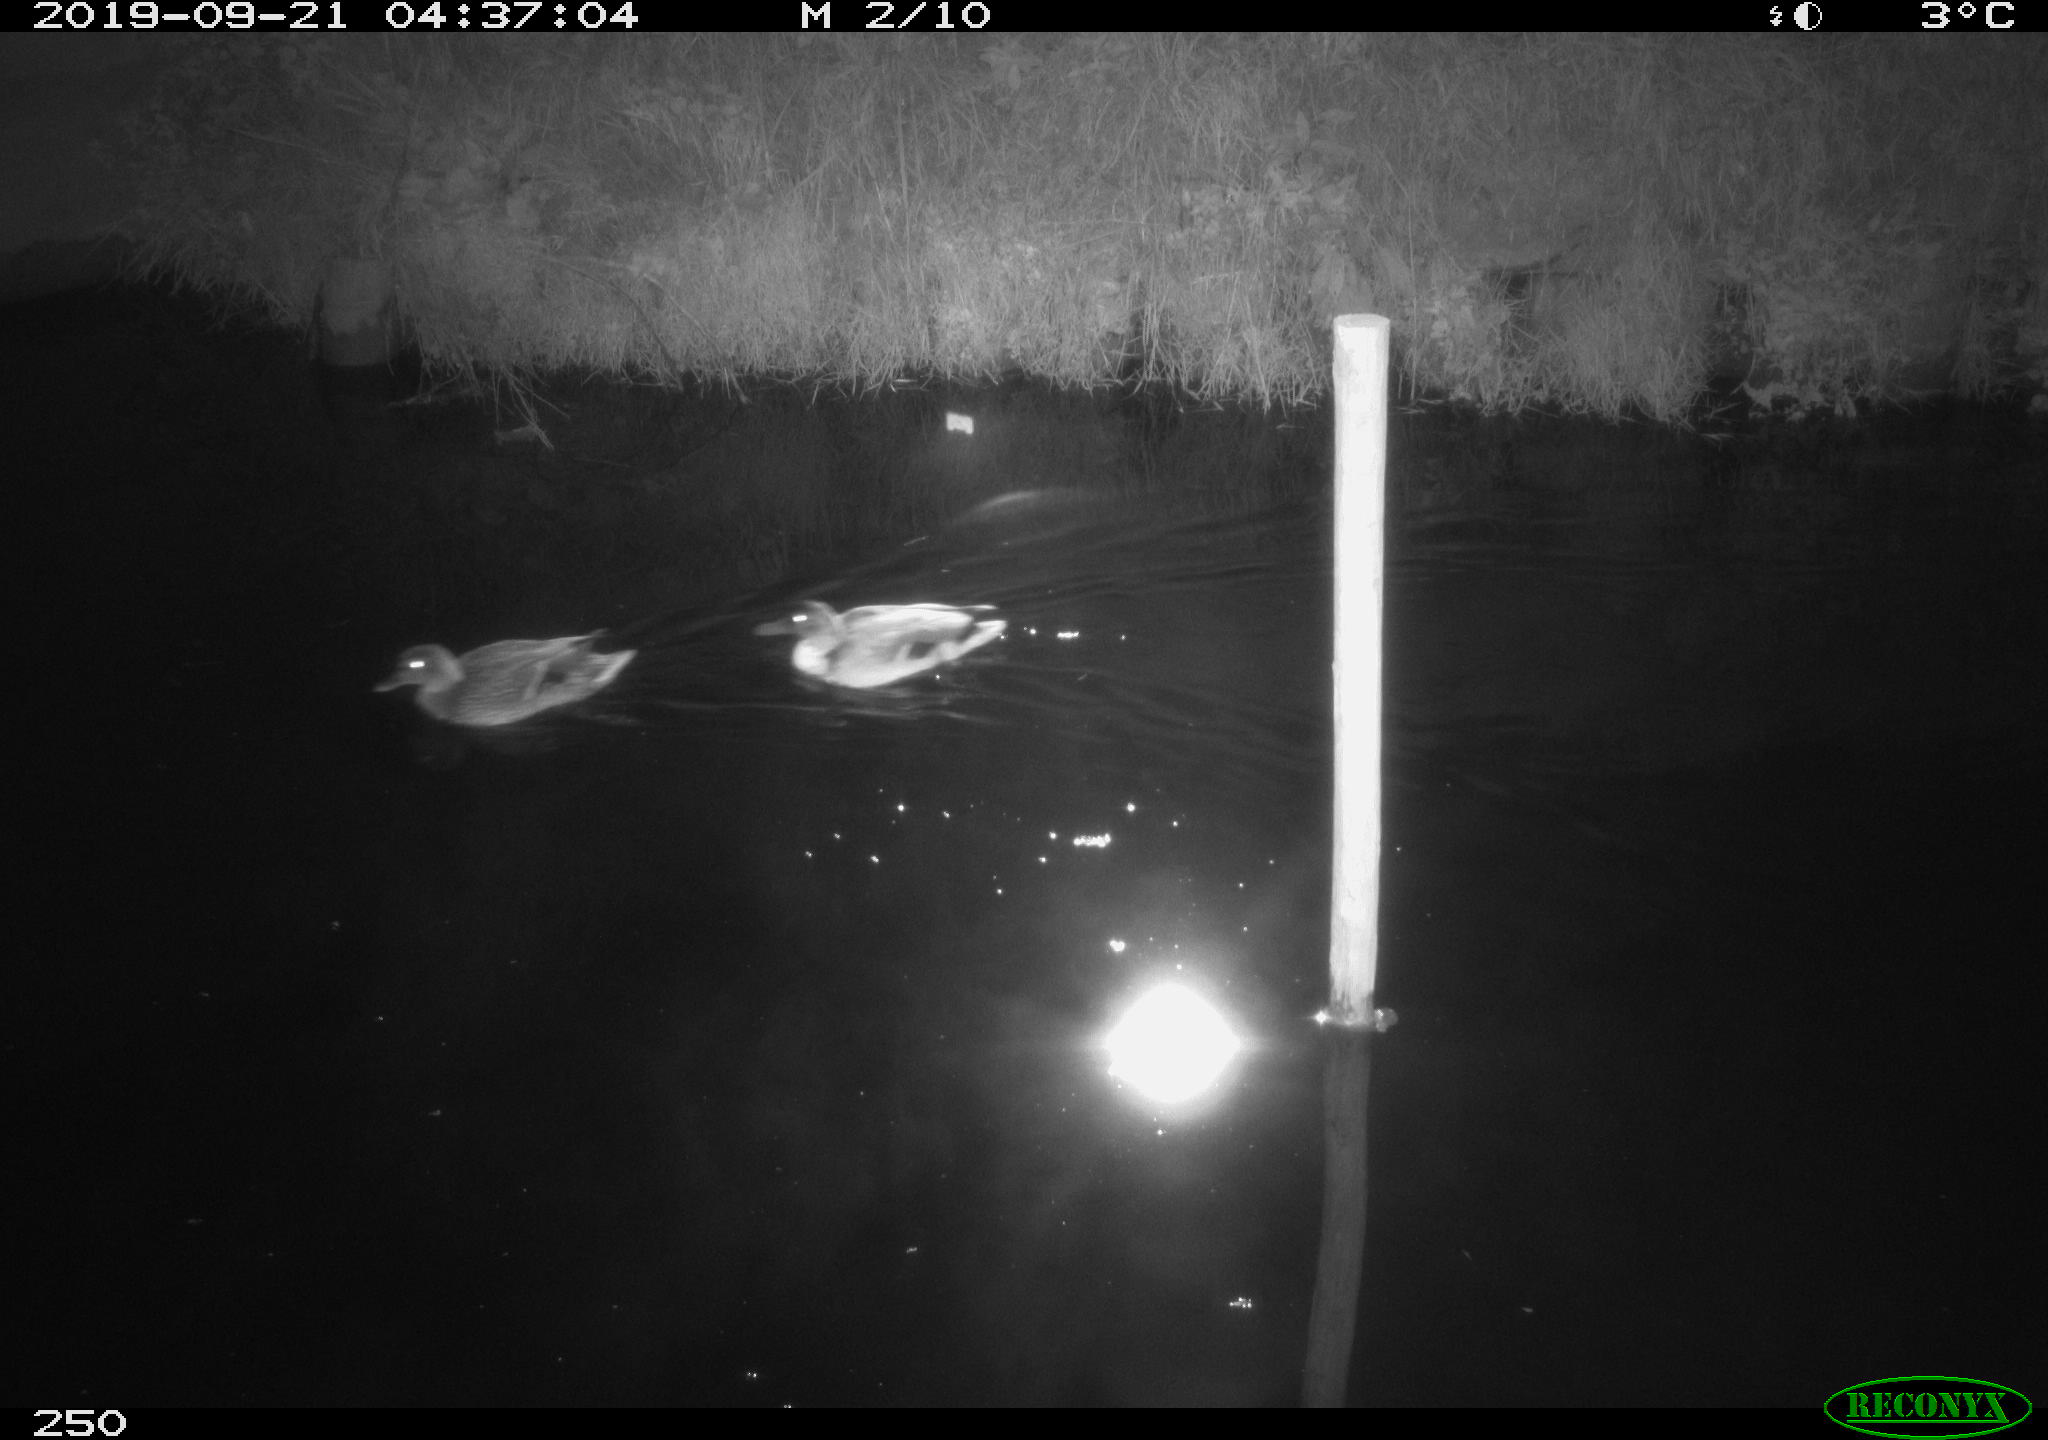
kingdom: Animalia
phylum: Chordata
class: Aves
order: Anseriformes
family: Anatidae
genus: Anas
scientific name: Anas platyrhynchos
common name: Mallard
